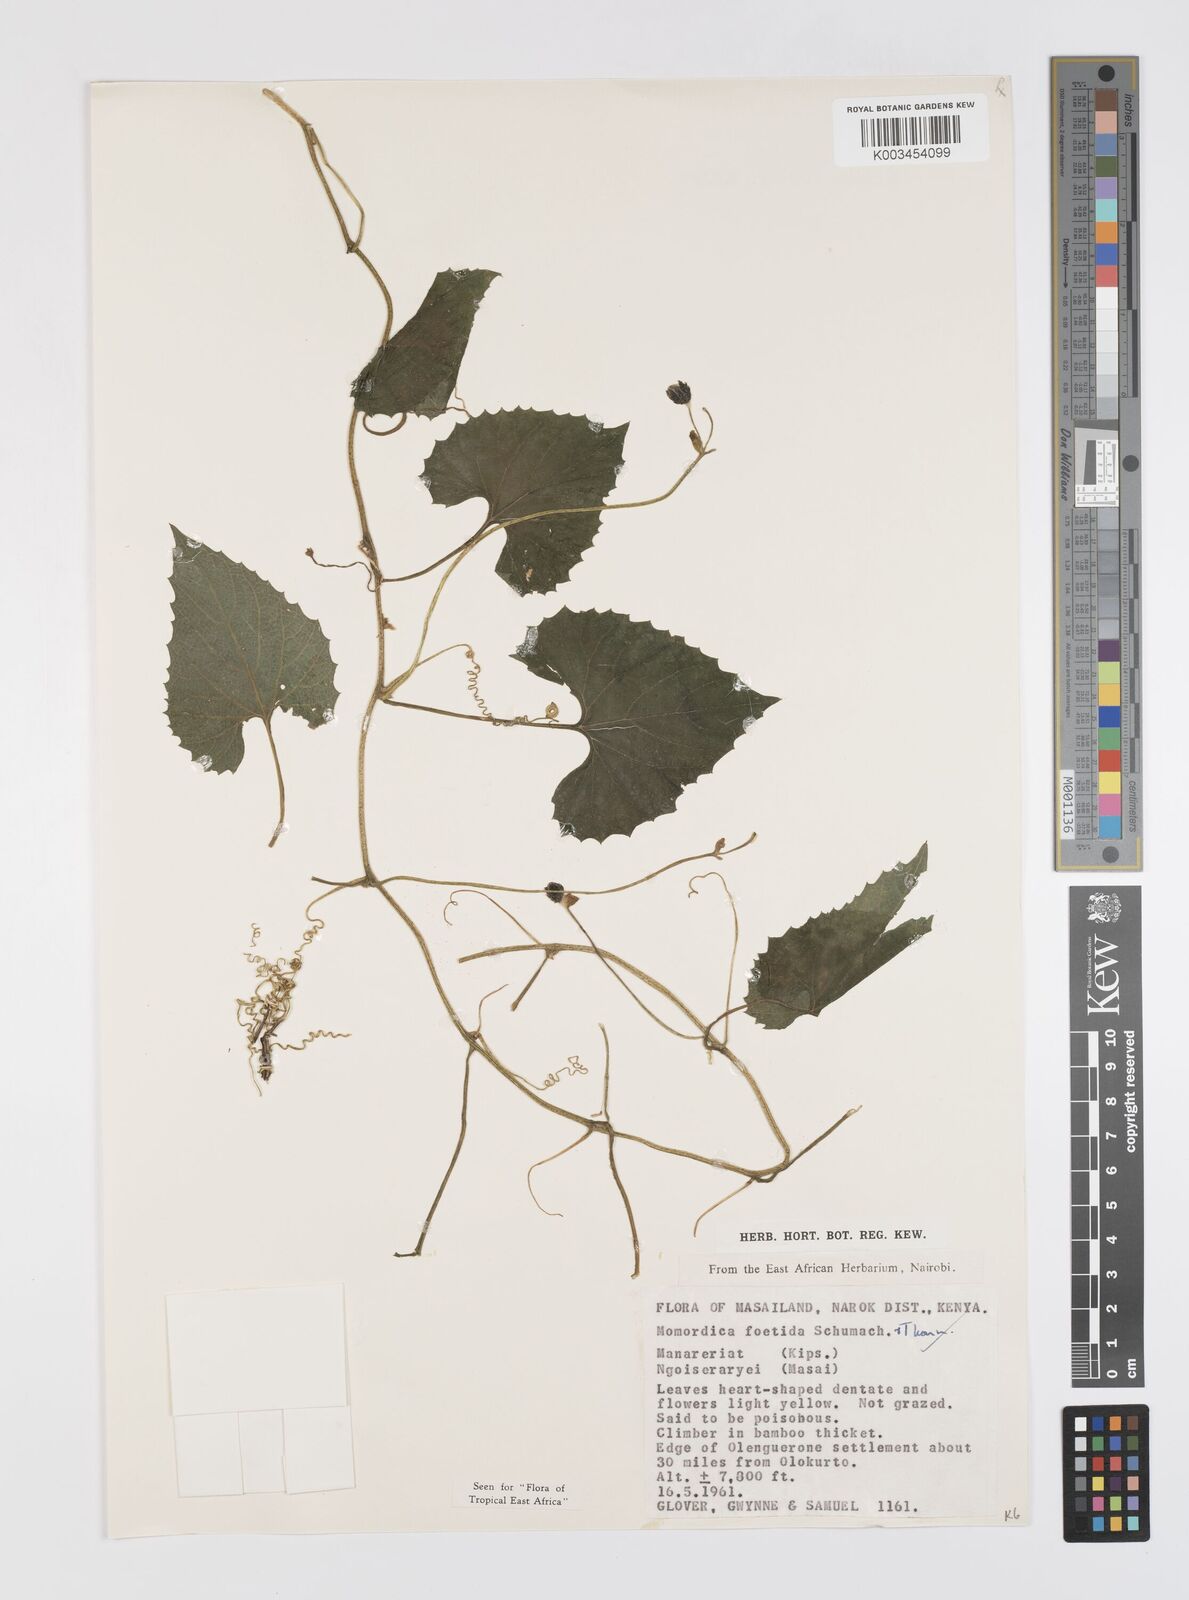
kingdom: Plantae
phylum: Tracheophyta
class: Magnoliopsida
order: Cucurbitales
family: Cucurbitaceae
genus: Momordica
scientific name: Momordica foetida
